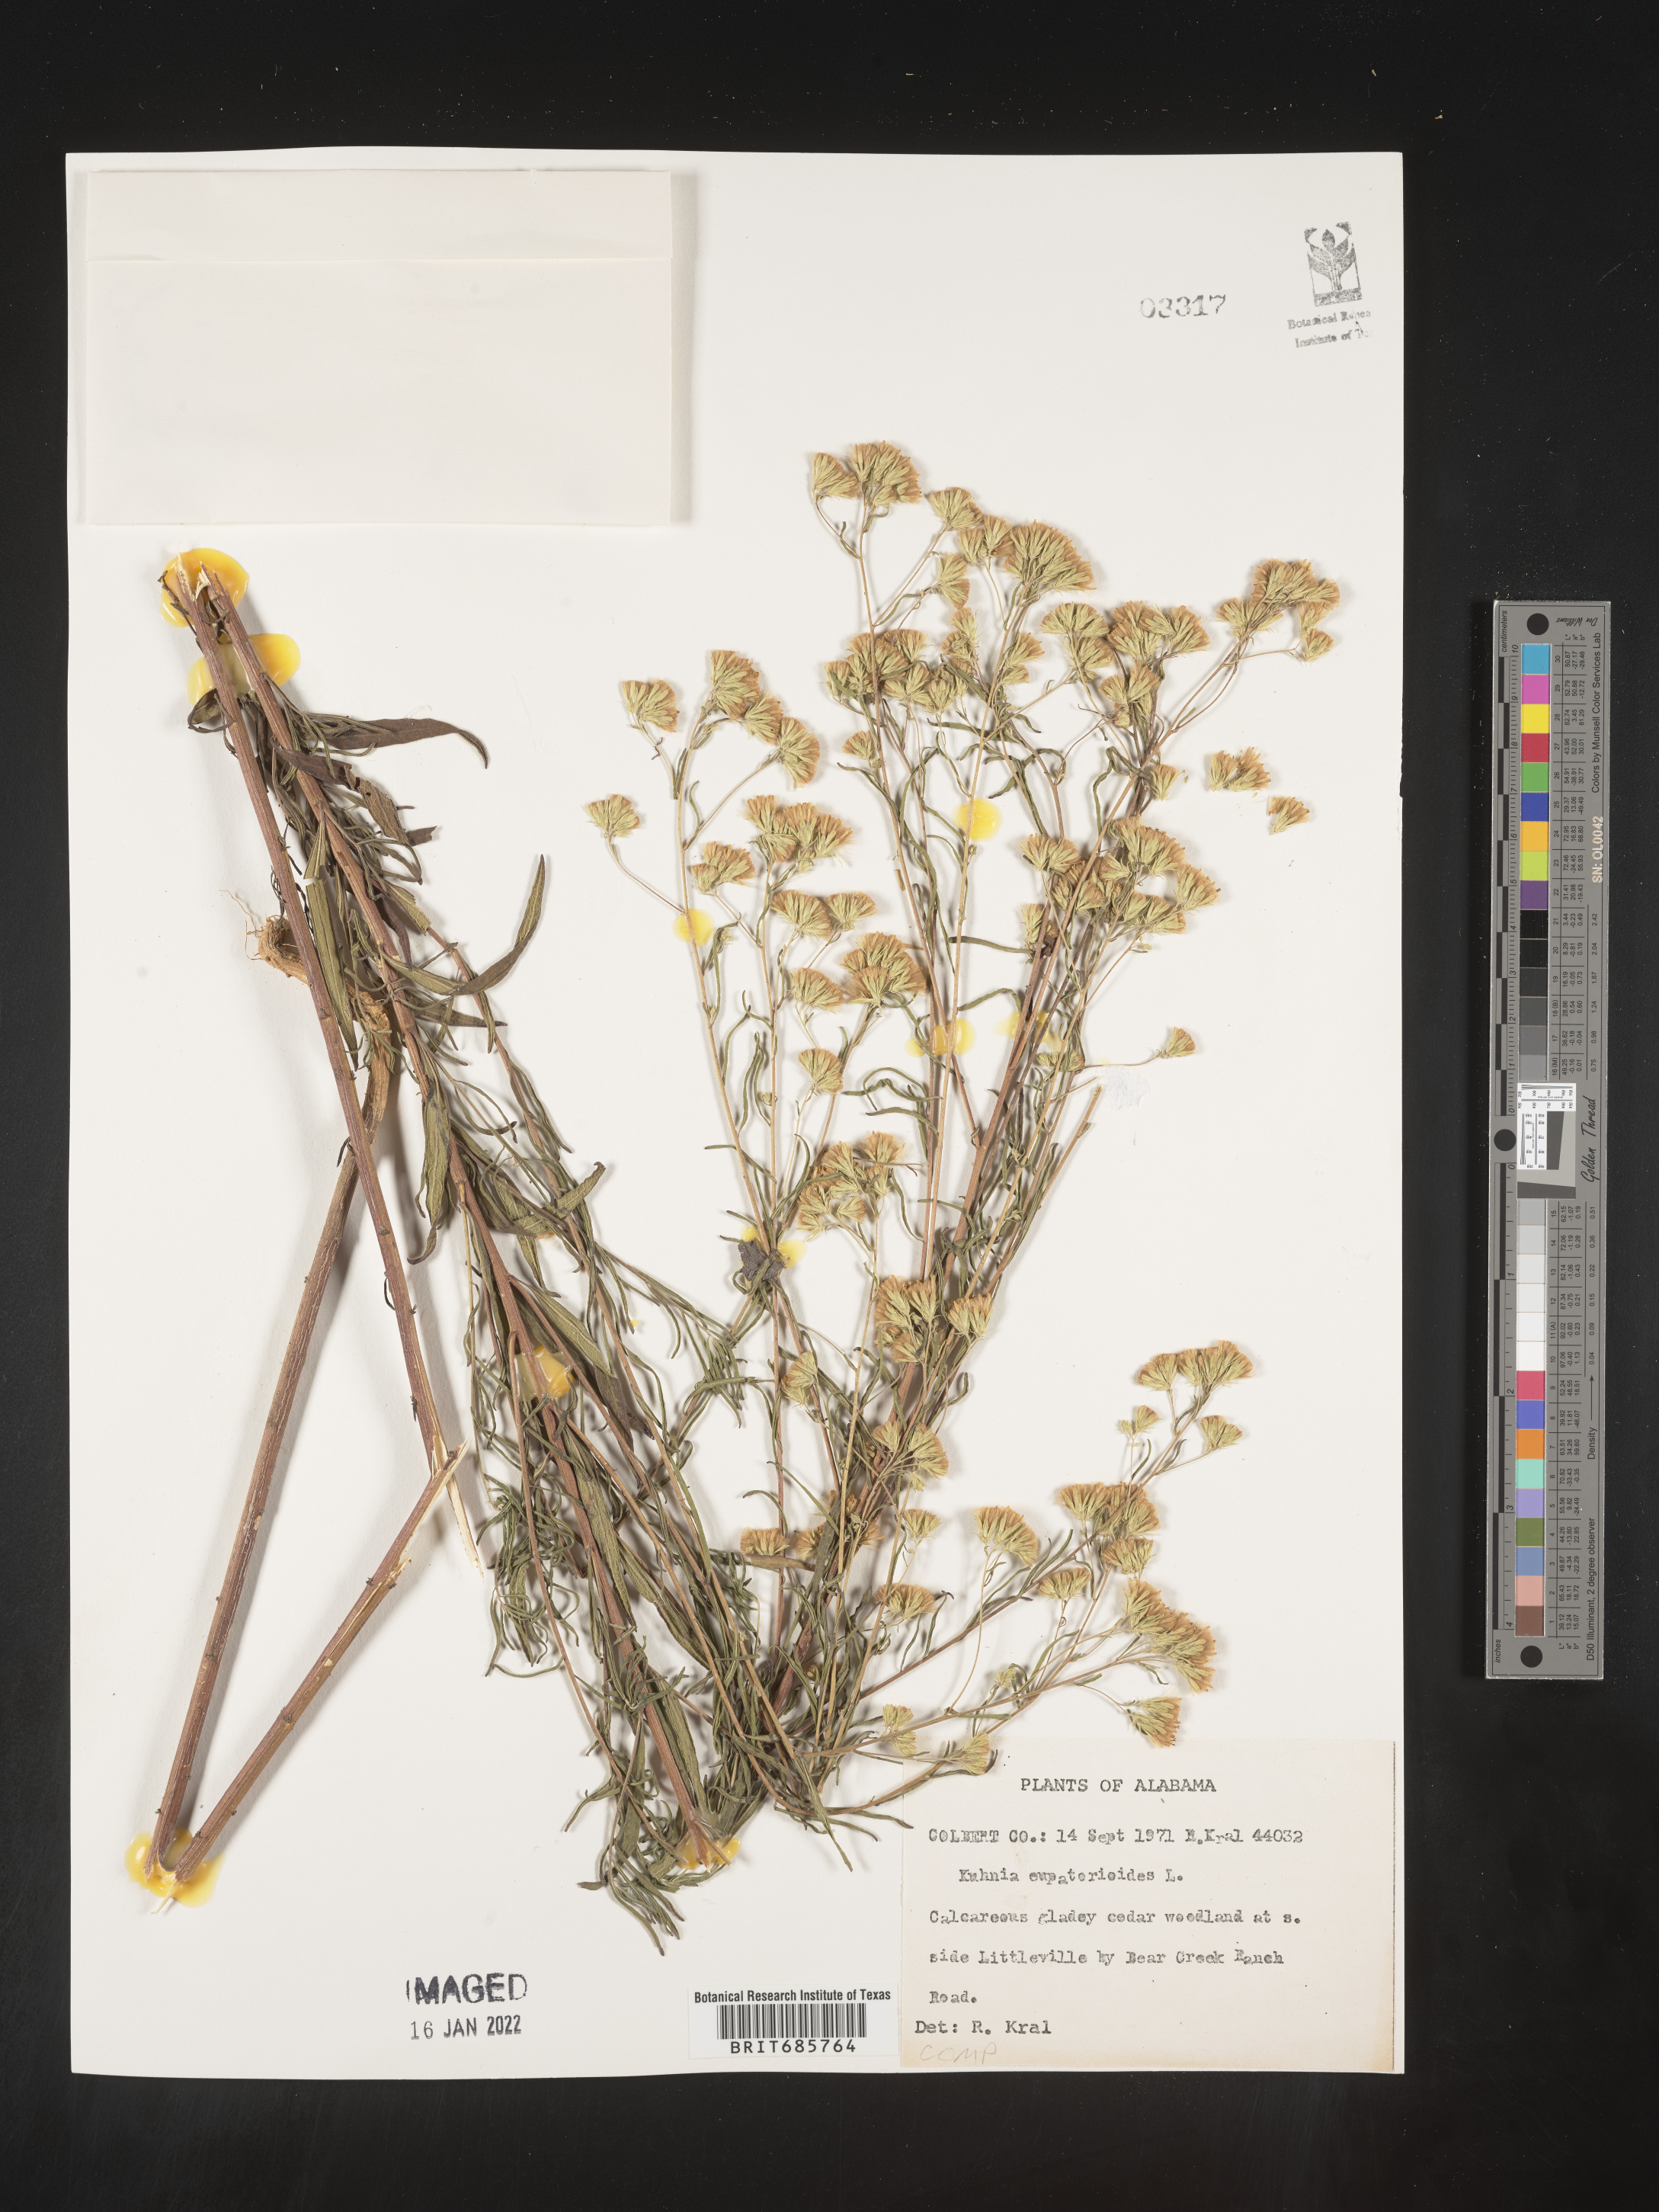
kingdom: Plantae
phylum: Tracheophyta
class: Magnoliopsida
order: Asterales
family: Asteraceae
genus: Brickellia
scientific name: Brickellia eupatorioides
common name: False boneset
